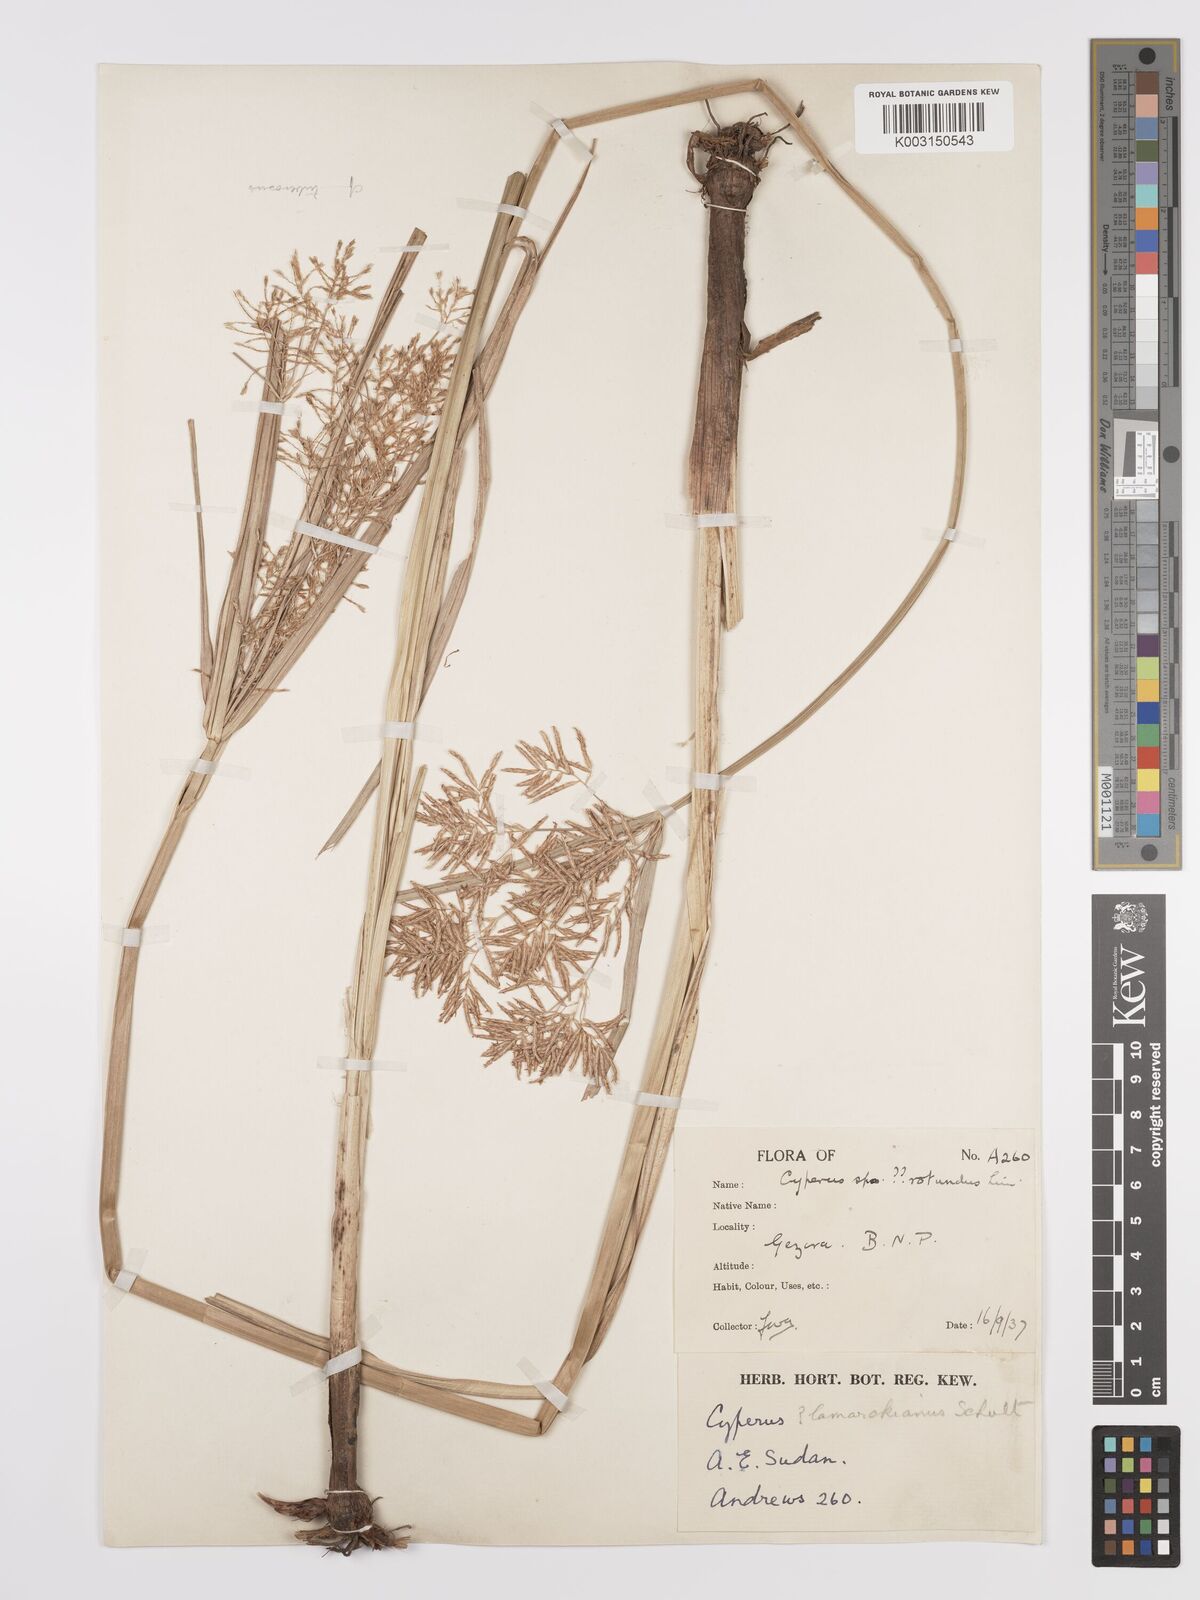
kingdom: Plantae
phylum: Tracheophyta
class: Liliopsida
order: Poales
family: Cyperaceae
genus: Cyperus
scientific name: Cyperus tuberosus
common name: Nut grass
